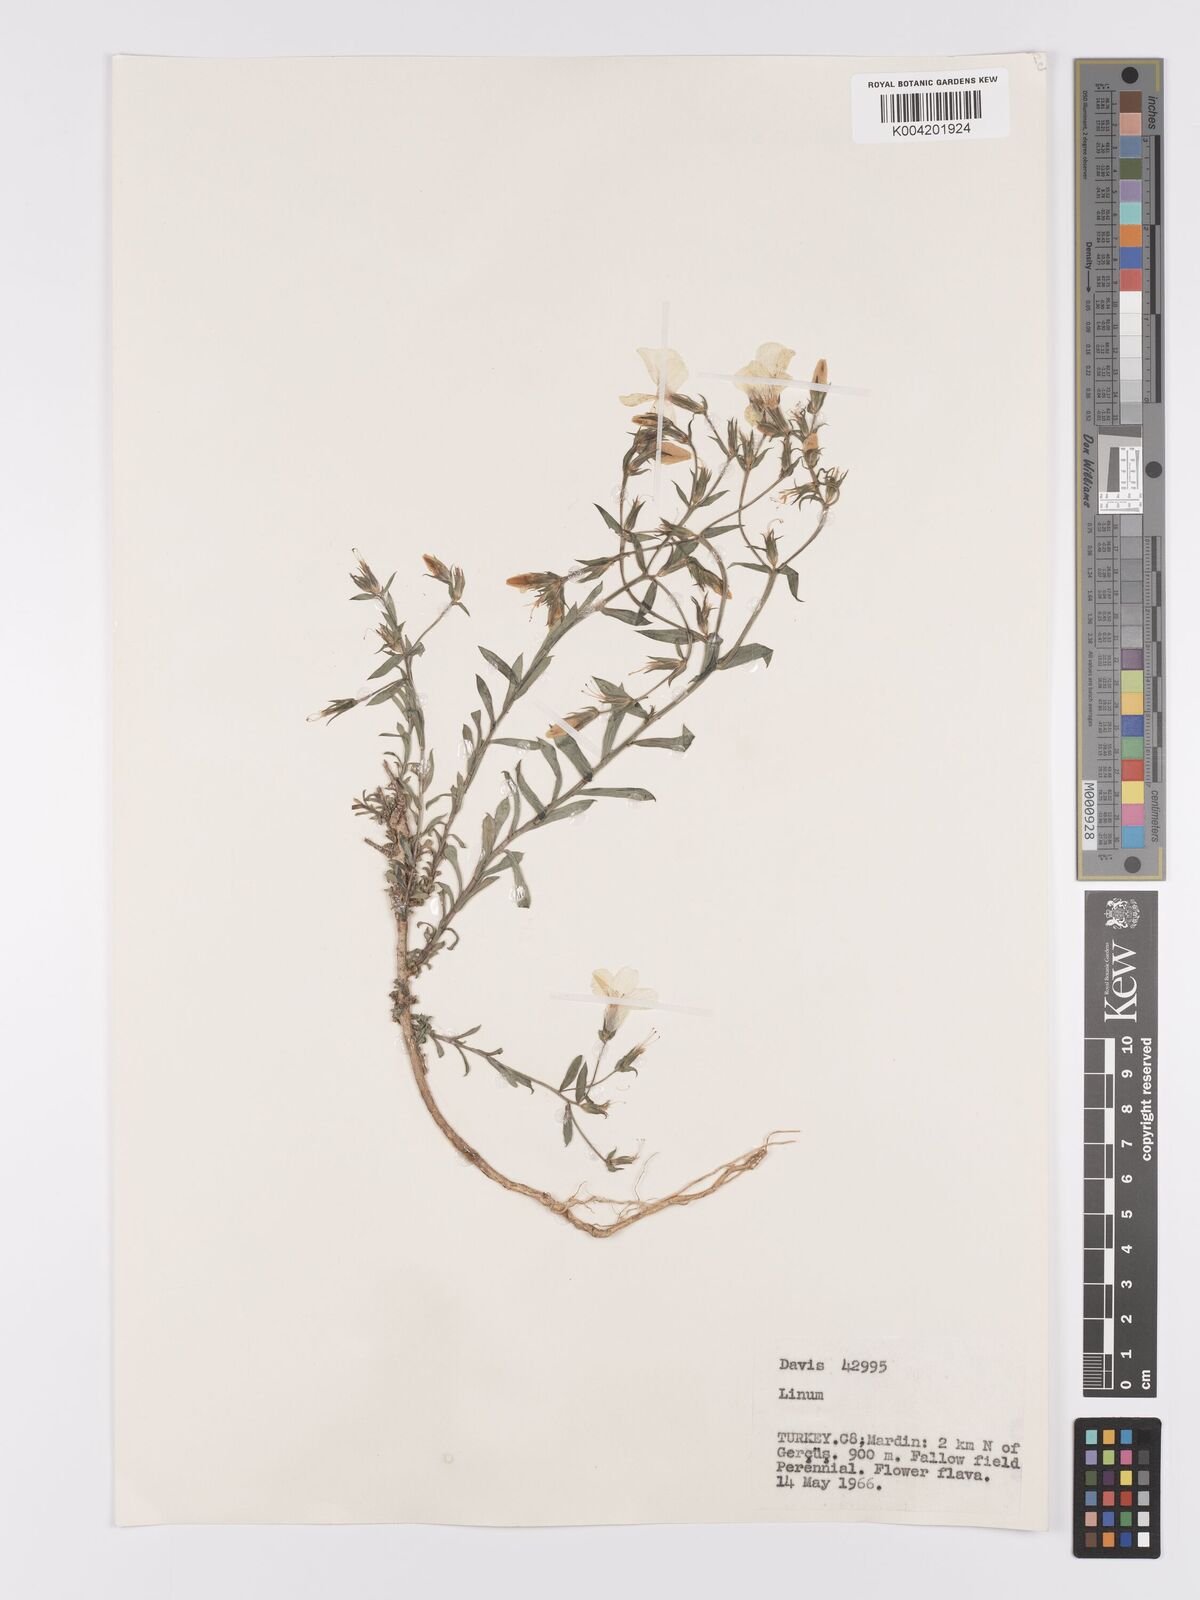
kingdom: Plantae
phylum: Tracheophyta
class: Magnoliopsida
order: Malpighiales
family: Linaceae
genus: Linum
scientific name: Linum
